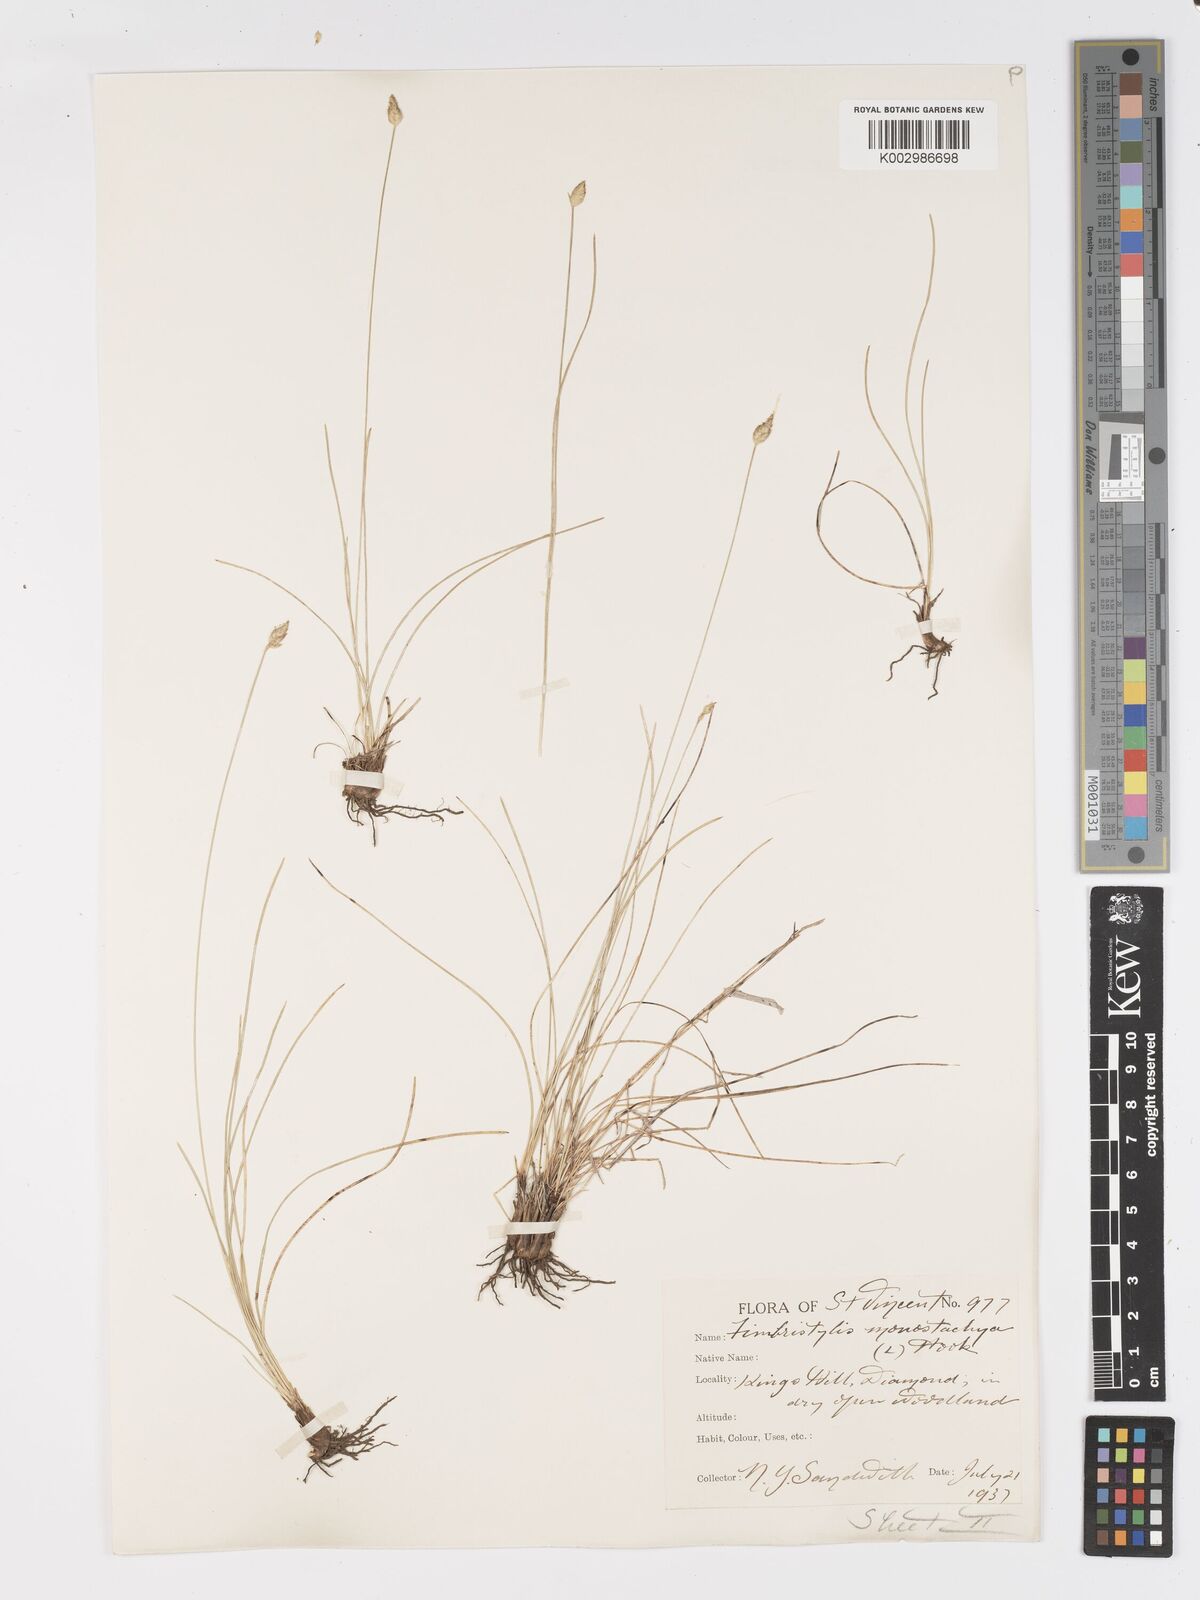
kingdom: Plantae
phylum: Tracheophyta
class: Liliopsida
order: Poales
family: Cyperaceae
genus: Abildgaardia
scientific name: Abildgaardia ovata
